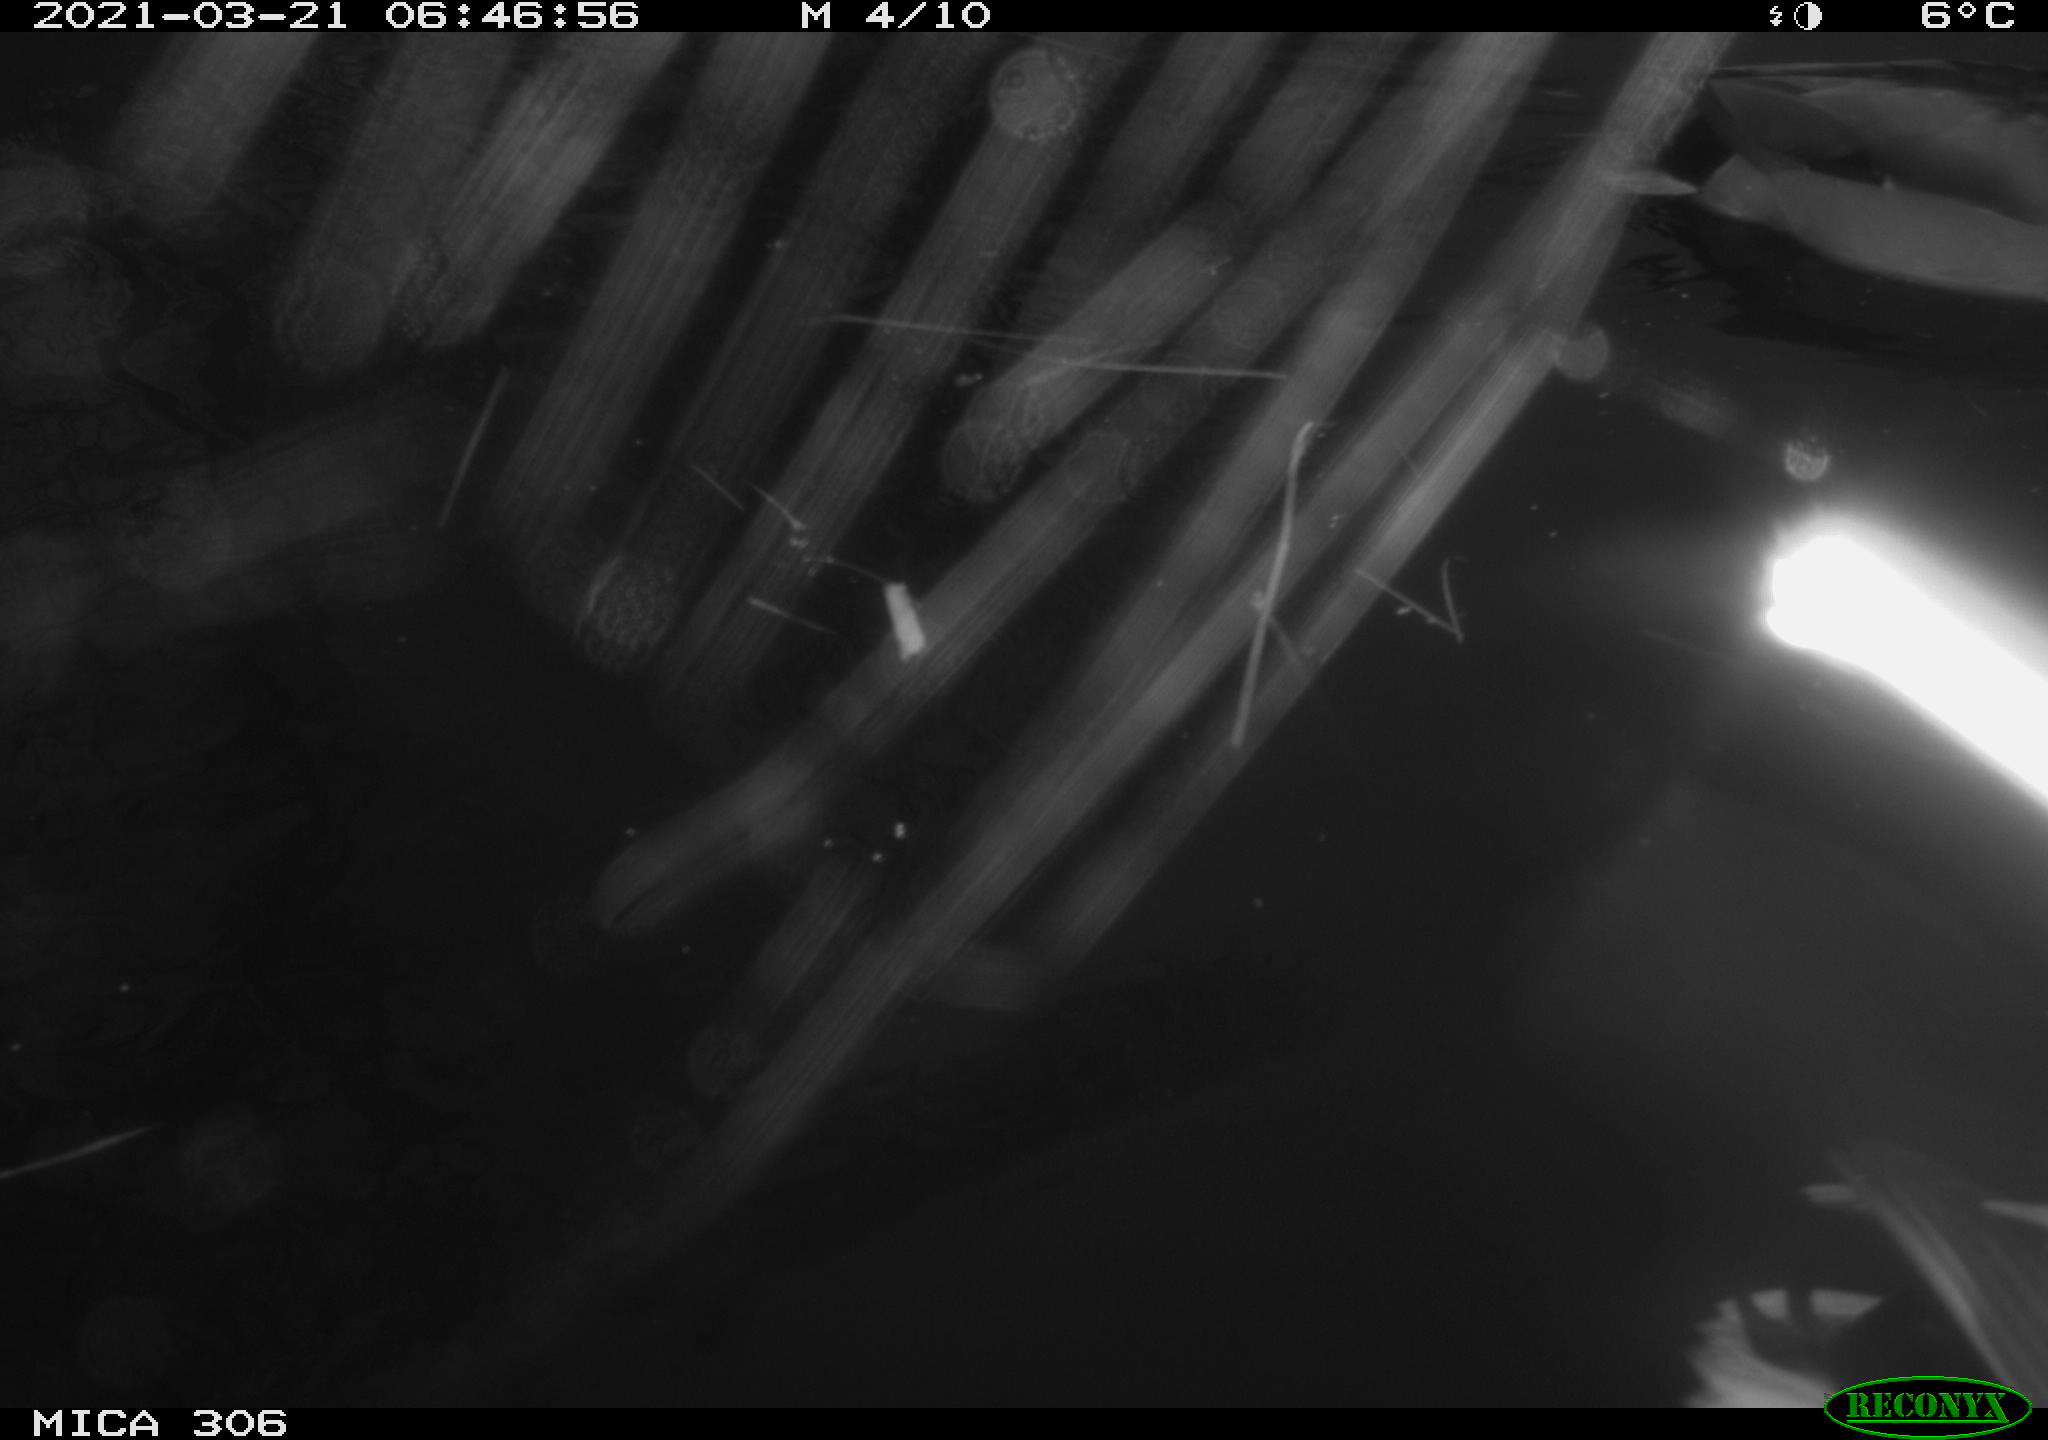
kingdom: Animalia
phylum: Chordata
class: Aves
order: Anseriformes
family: Anatidae
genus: Anas
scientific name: Anas platyrhynchos
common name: Mallard
